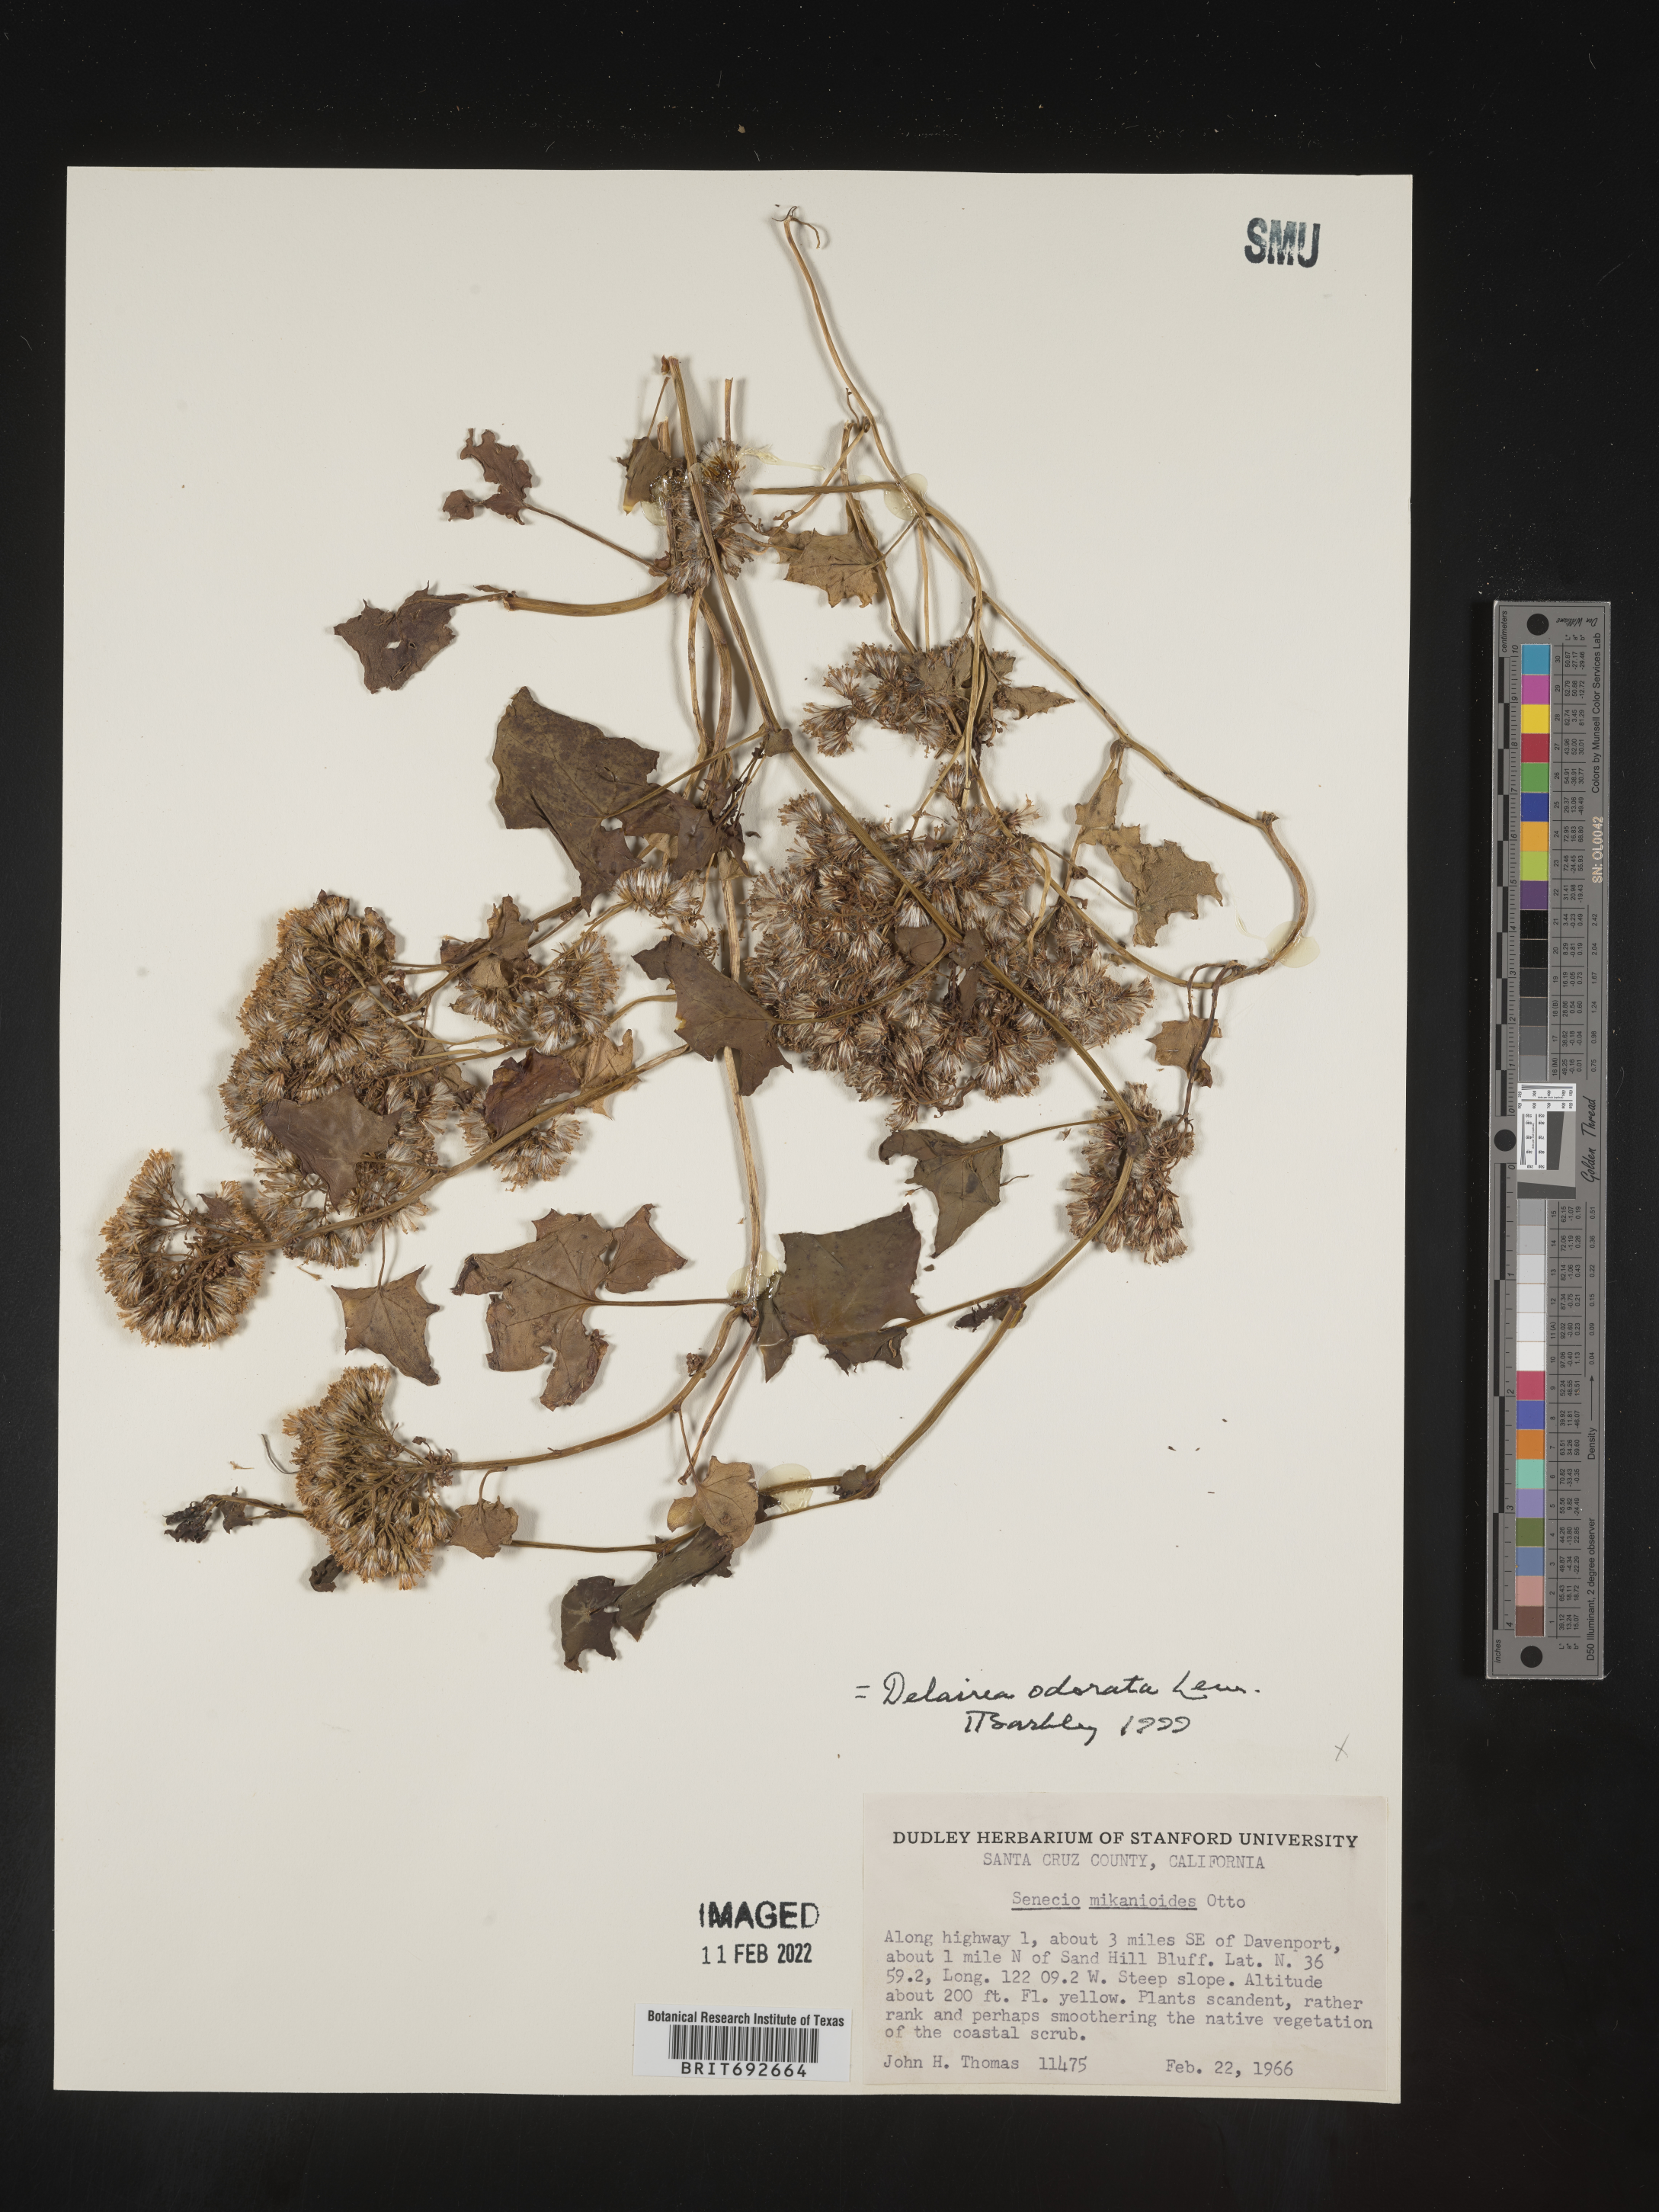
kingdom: Plantae
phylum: Tracheophyta
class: Magnoliopsida
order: Asterales
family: Asteraceae
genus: Delairea
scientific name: Delairea odorata
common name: Cape-ivy
